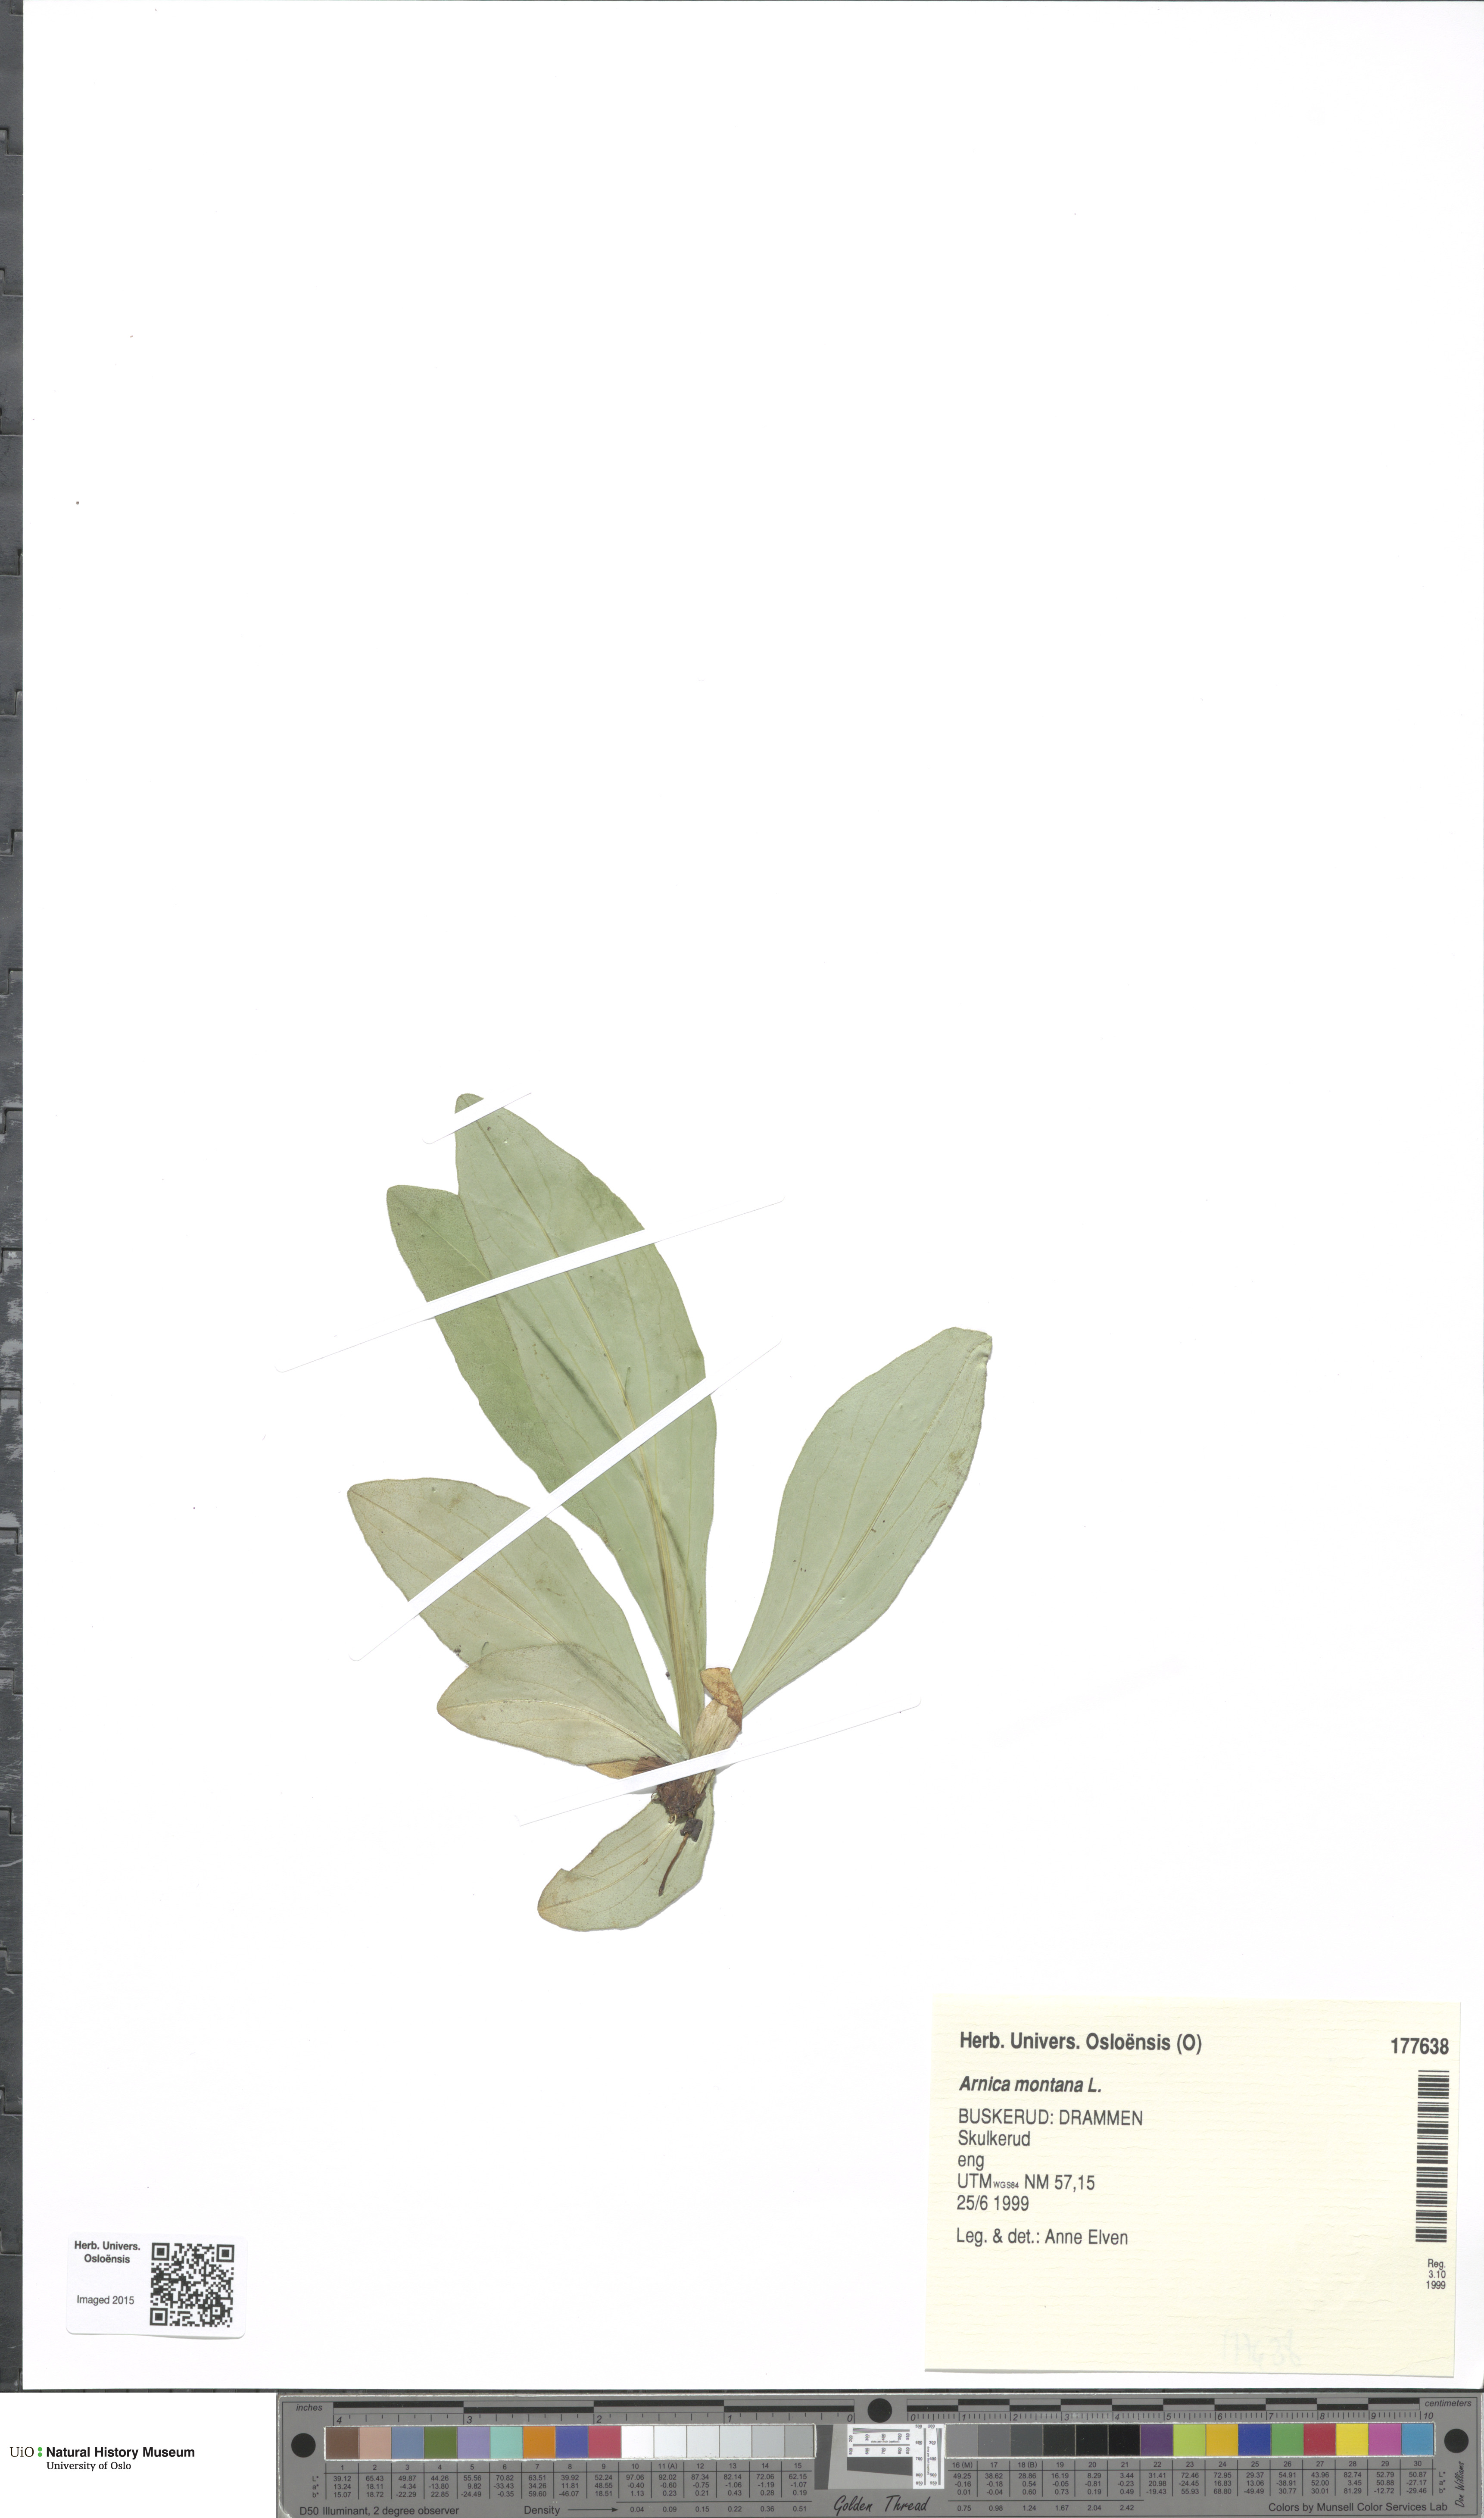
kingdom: Plantae
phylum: Tracheophyta
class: Magnoliopsida
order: Asterales
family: Asteraceae
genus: Arnica
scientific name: Arnica montana
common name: Leopard's bane
